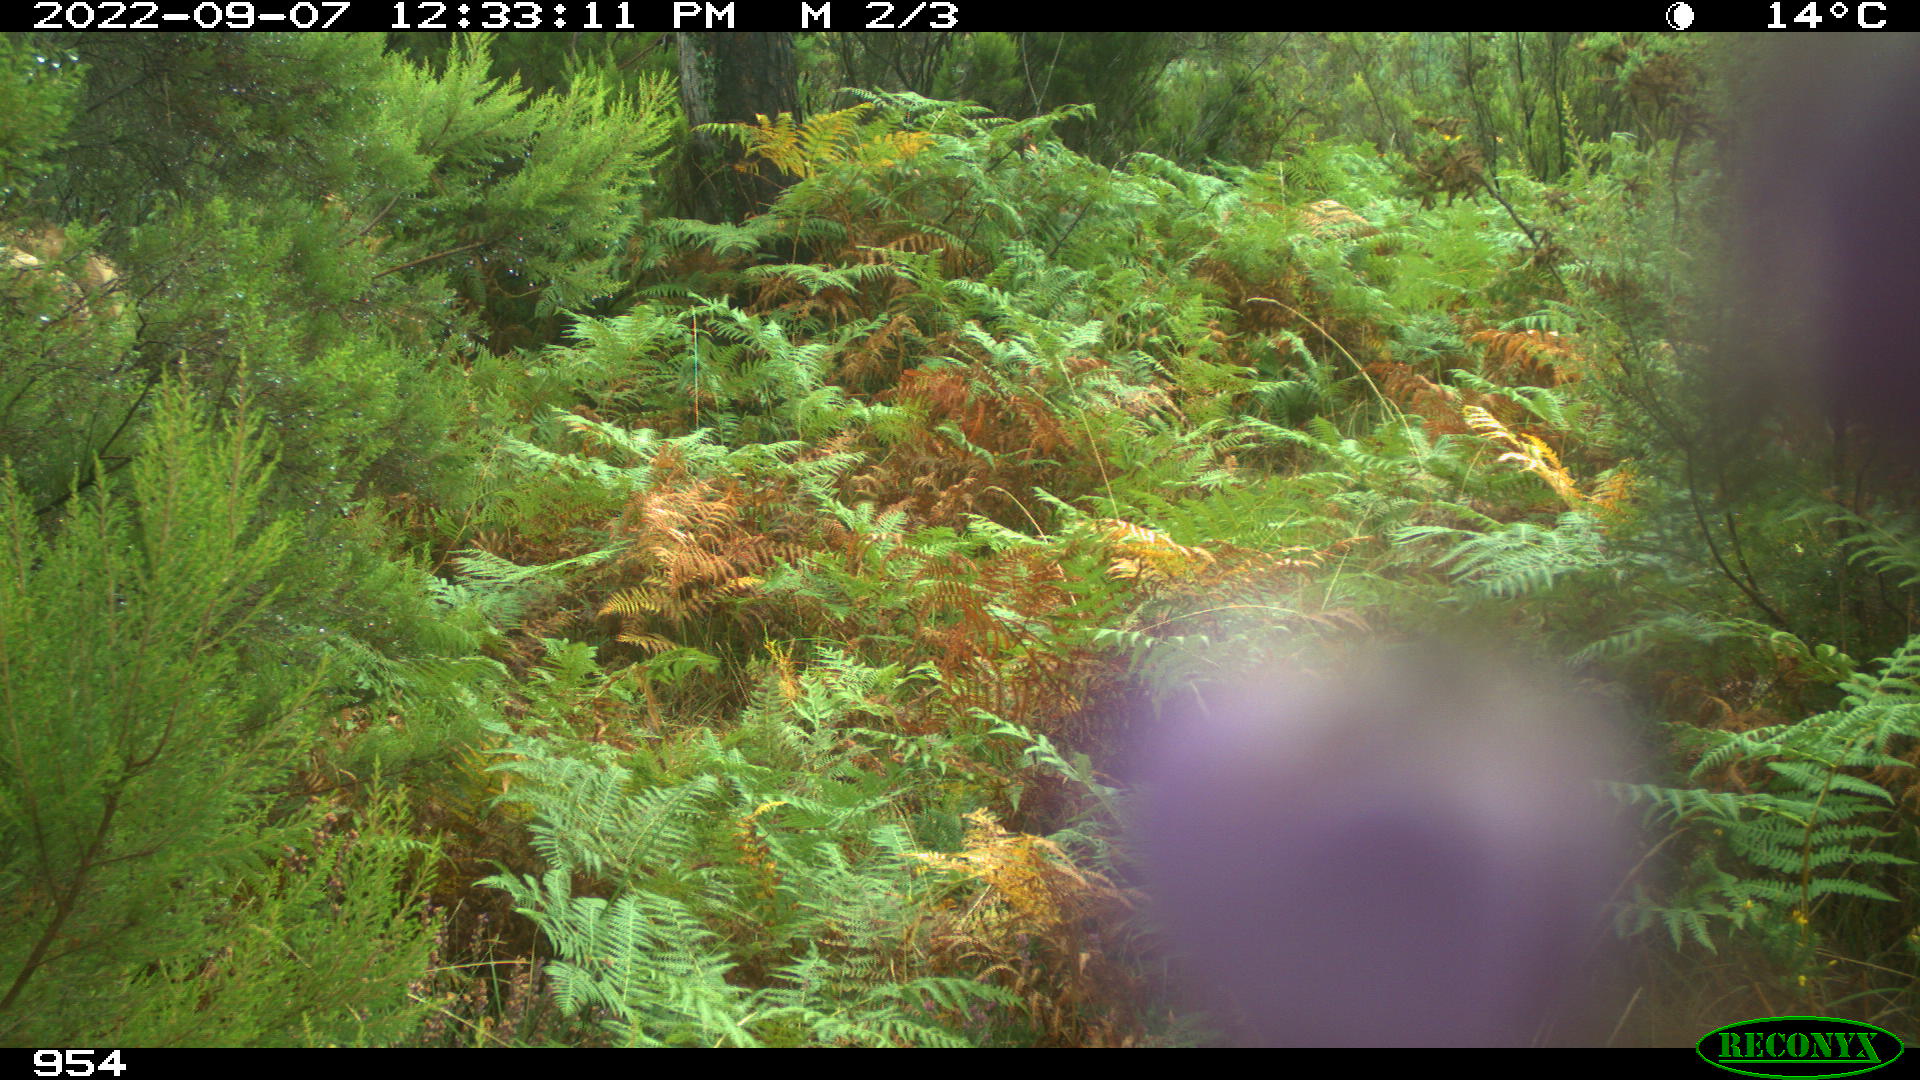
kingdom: Animalia
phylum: Chordata
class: Mammalia
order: Artiodactyla
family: Bovidae
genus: Bos
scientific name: Bos taurus
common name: Domesticated cattle
